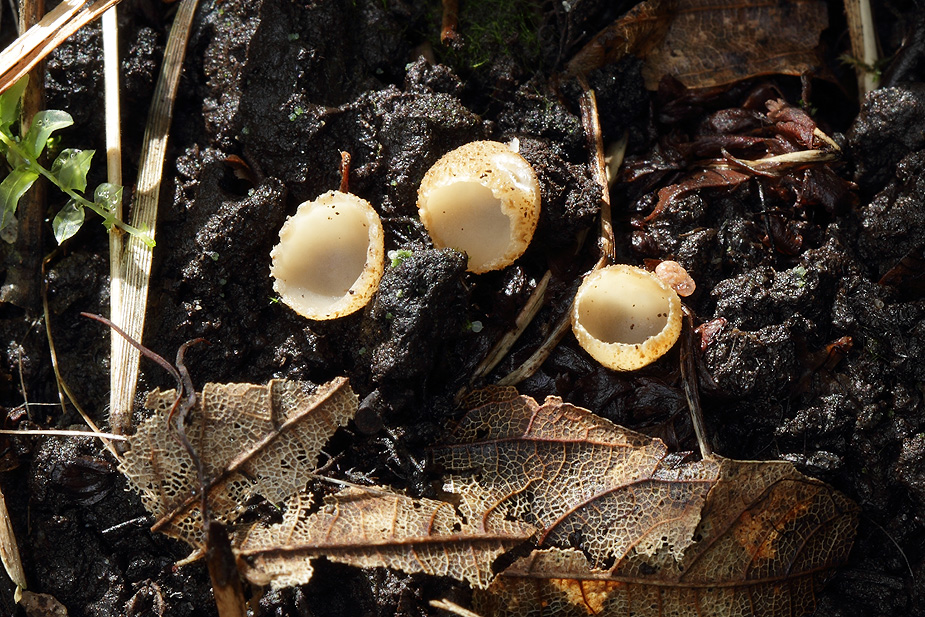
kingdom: Fungi
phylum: Ascomycota
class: Pezizomycetes
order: Pezizales
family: Pyronemataceae
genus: Tarzetta
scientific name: Tarzetta cupularis
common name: gulbrun pokalbæger
